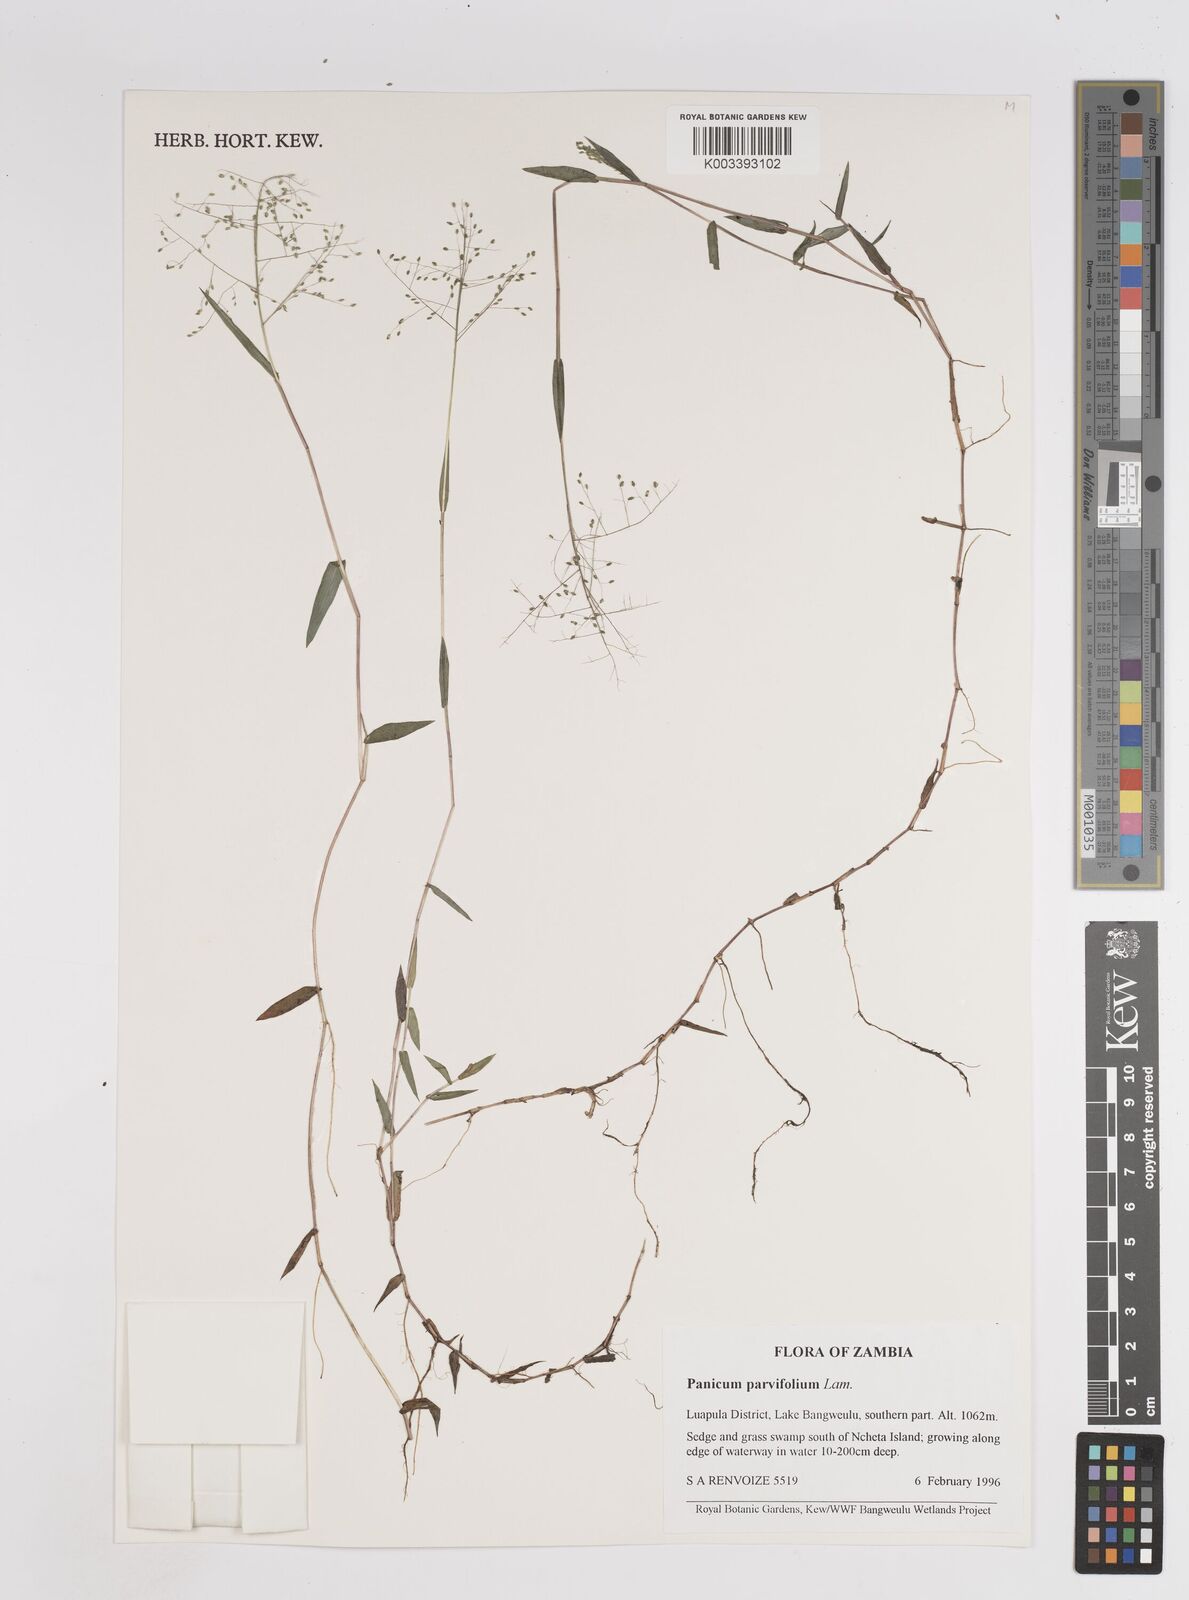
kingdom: Plantae
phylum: Tracheophyta
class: Liliopsida
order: Poales
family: Poaceae
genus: Trichanthecium
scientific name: Trichanthecium parvifolium
